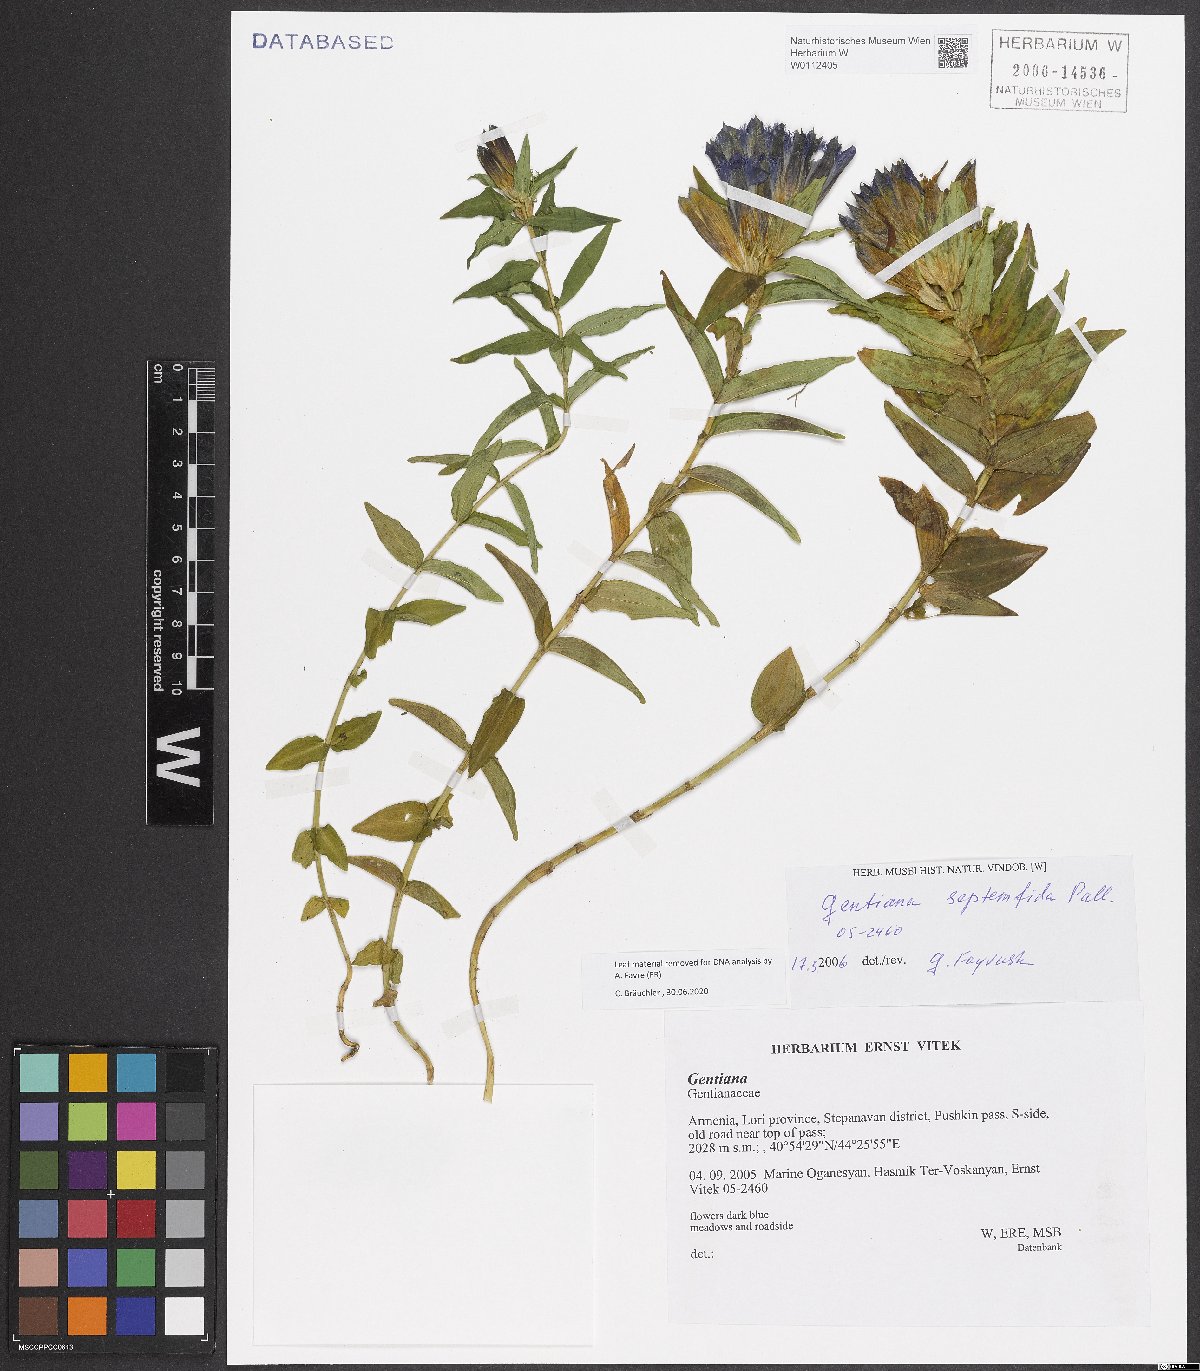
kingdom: Plantae
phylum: Tracheophyta
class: Magnoliopsida
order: Gentianales
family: Gentianaceae
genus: Gentiana
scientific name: Gentiana septemfida
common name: Crested gentian
